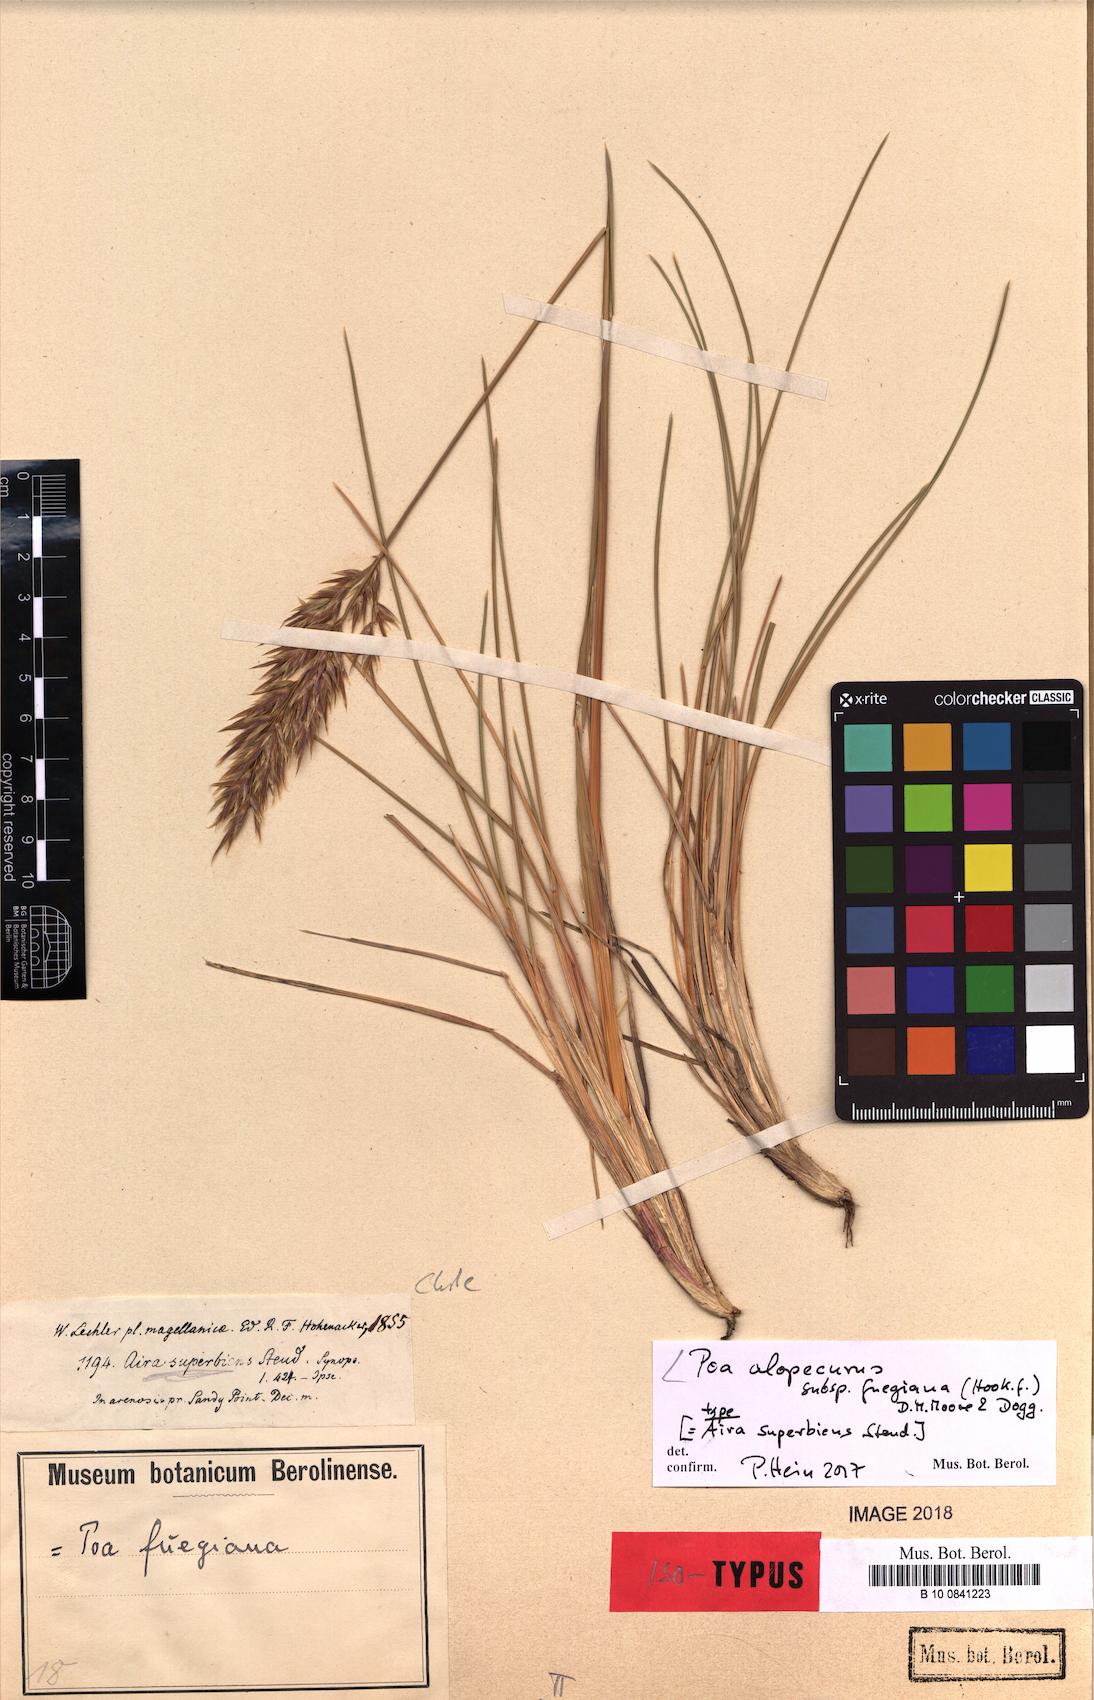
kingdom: Plantae
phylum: Tracheophyta
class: Liliopsida
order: Poales
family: Poaceae
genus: Poa
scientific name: Poa alopecurus
